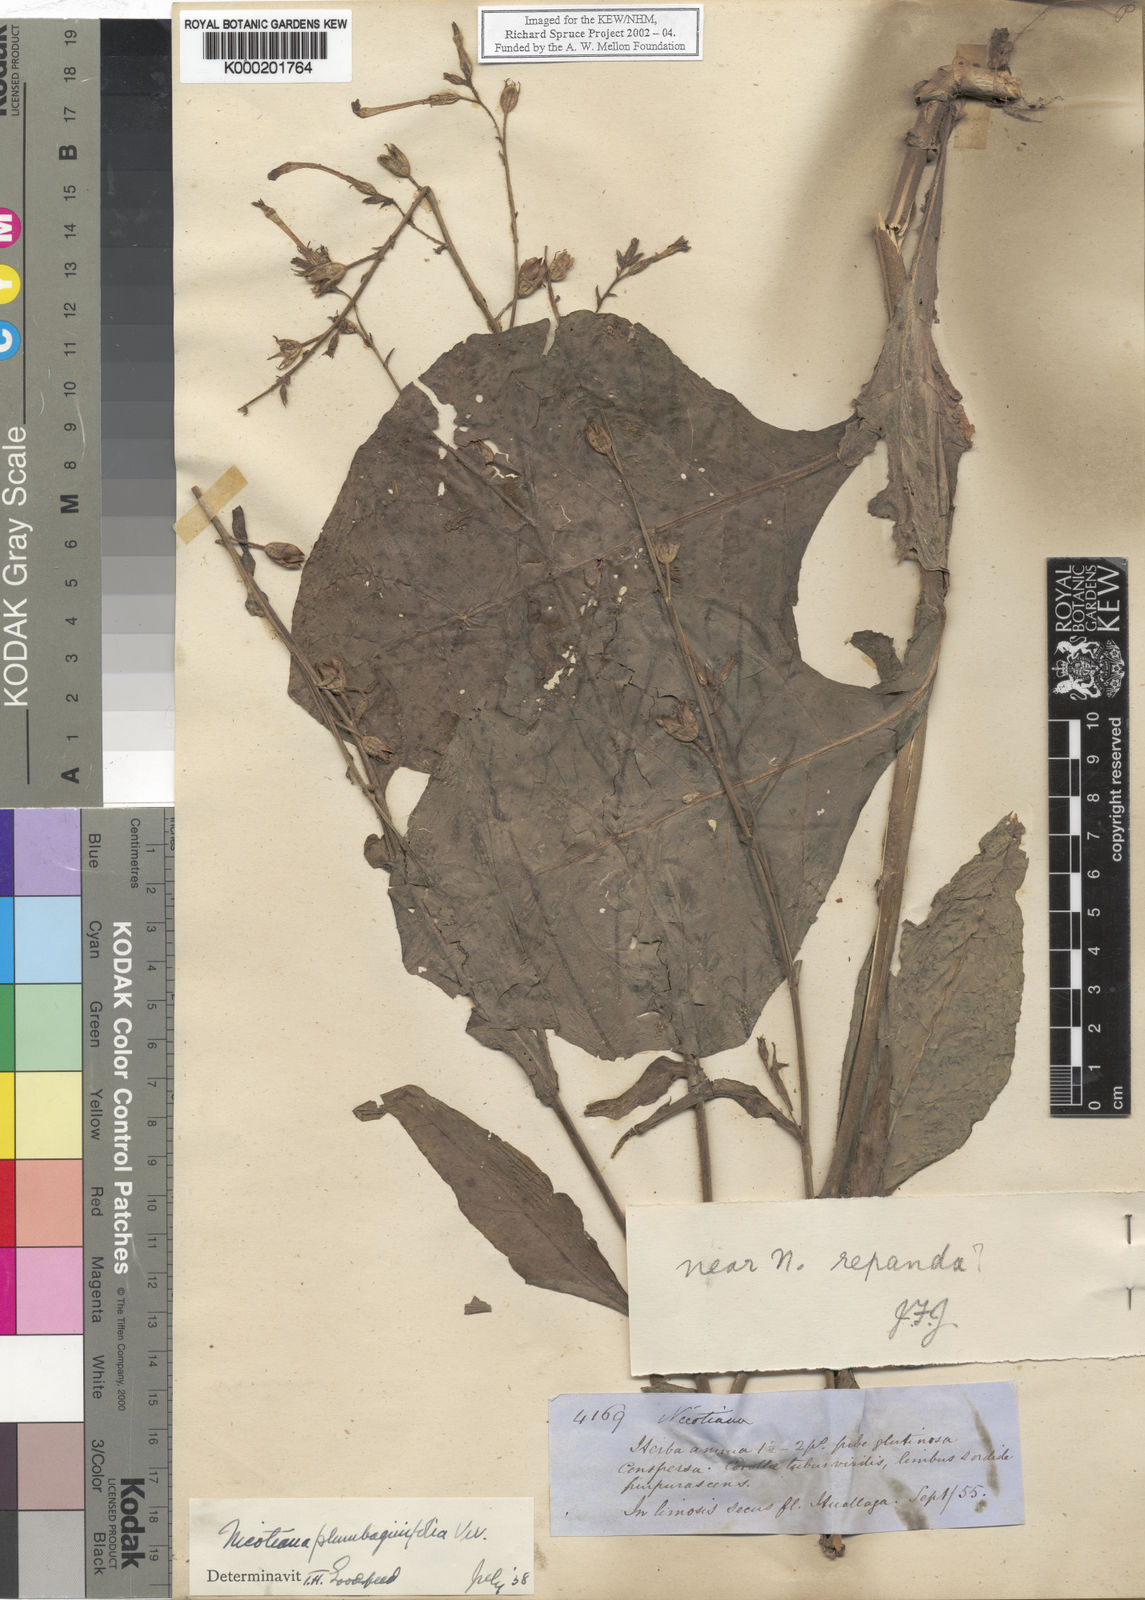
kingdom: Plantae
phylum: Tracheophyta
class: Magnoliopsida
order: Solanales
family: Solanaceae
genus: Nicotiana
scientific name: Nicotiana plumbaginifolia
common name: Tex-mex tobacco
